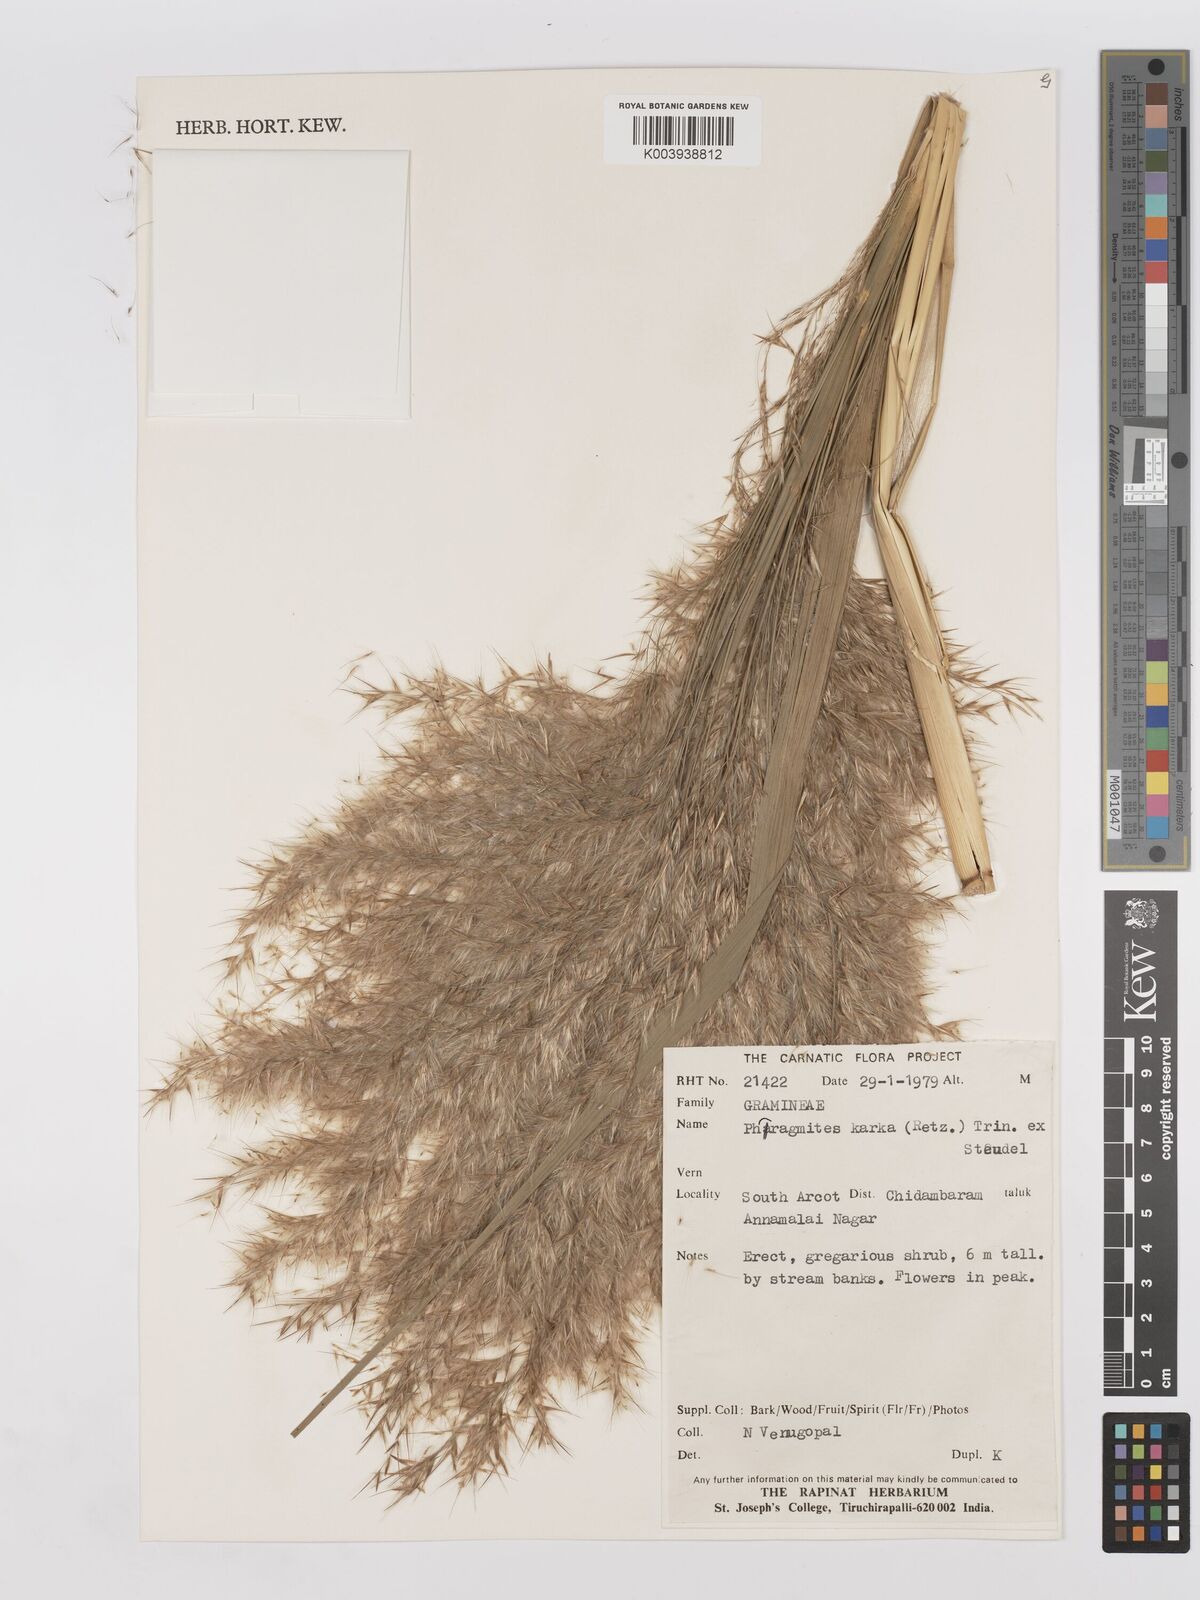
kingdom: Plantae
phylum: Tracheophyta
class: Liliopsida
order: Poales
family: Poaceae
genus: Phragmites
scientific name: Phragmites karka
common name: Tropical reed
